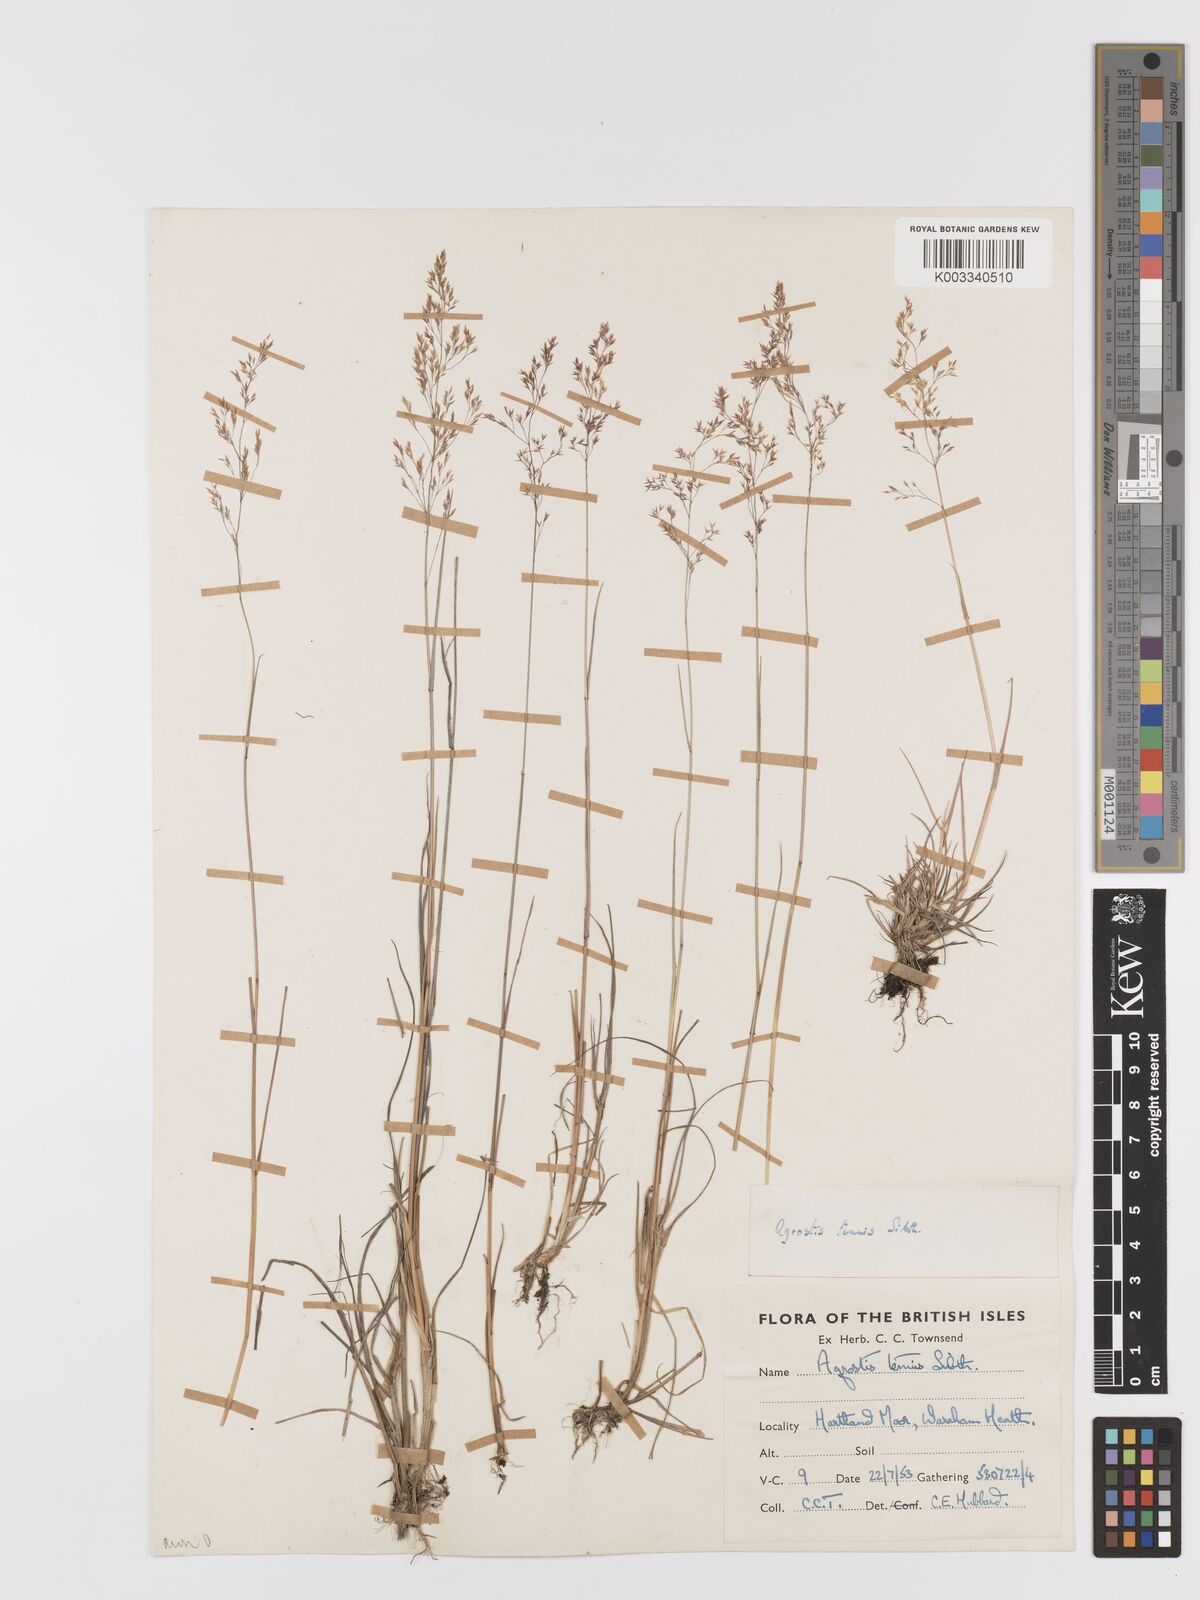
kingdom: Plantae
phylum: Tracheophyta
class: Liliopsida
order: Poales
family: Poaceae
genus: Agrostis
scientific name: Agrostis capillaris
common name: Colonial bentgrass
